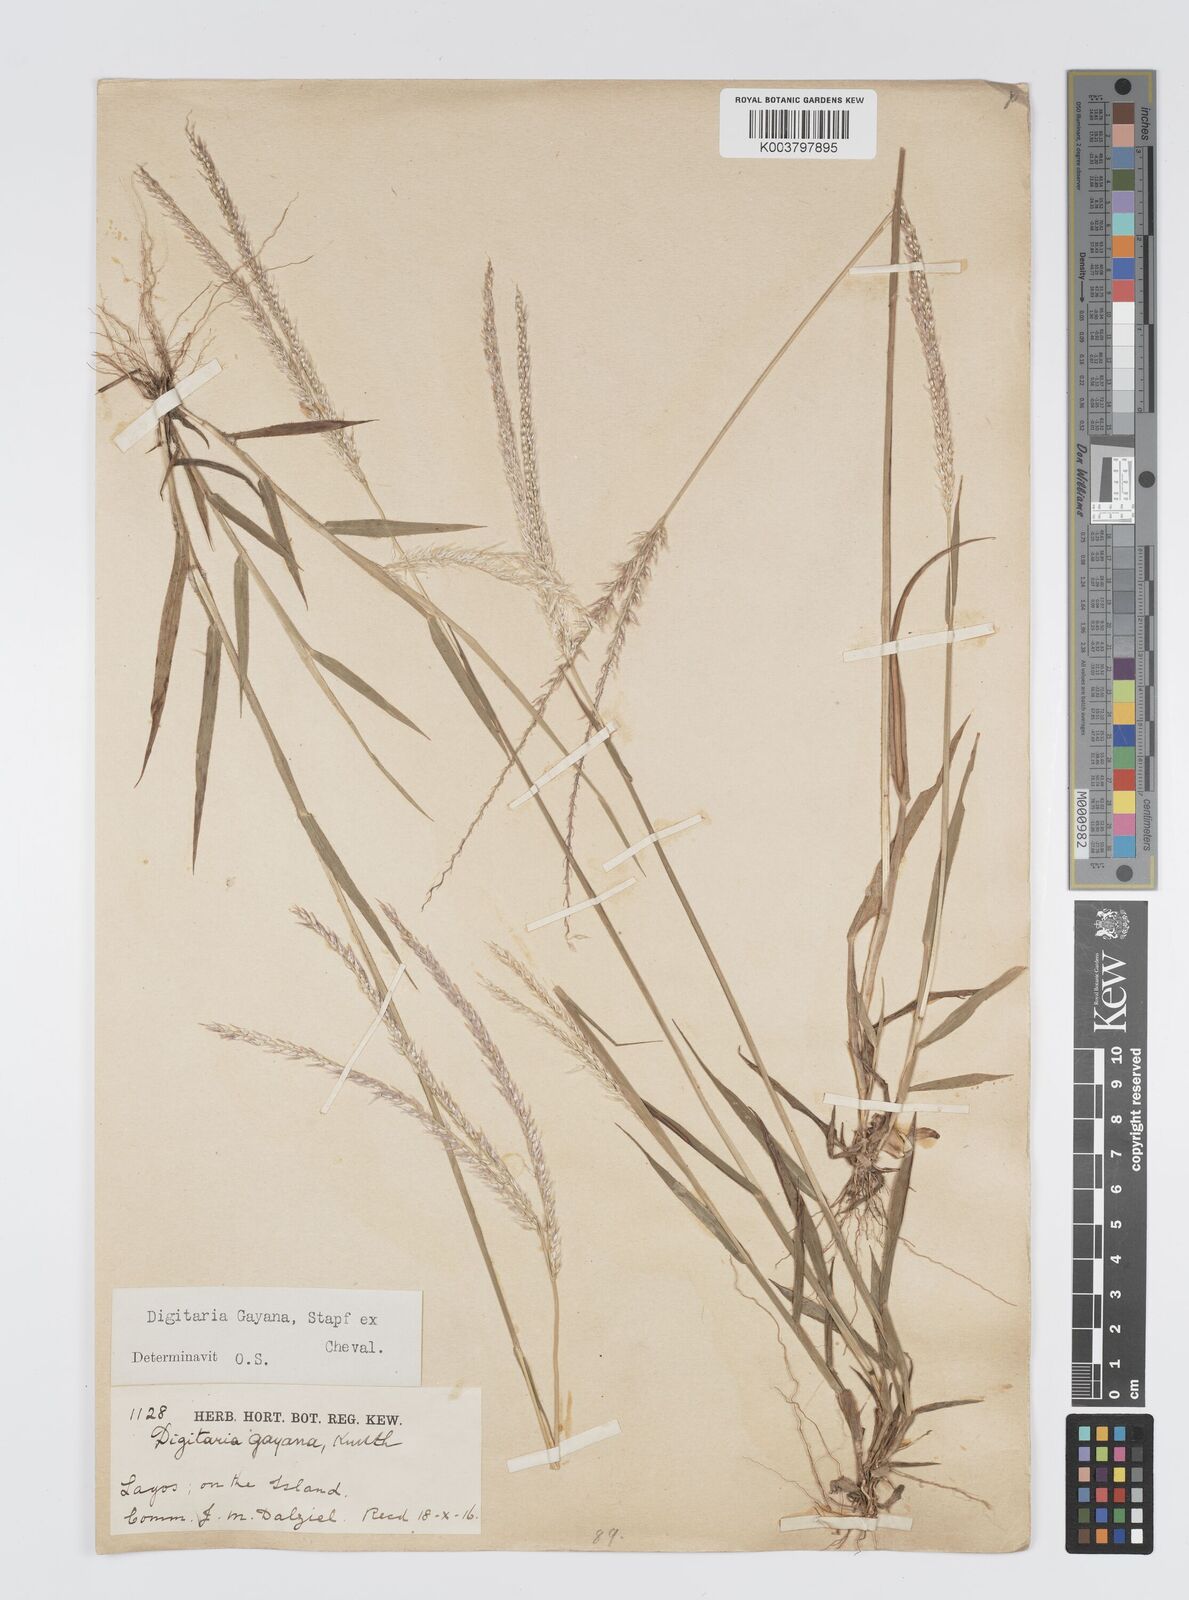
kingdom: Plantae
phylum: Tracheophyta
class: Liliopsida
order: Poales
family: Poaceae
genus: Digitaria
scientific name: Digitaria gayana
